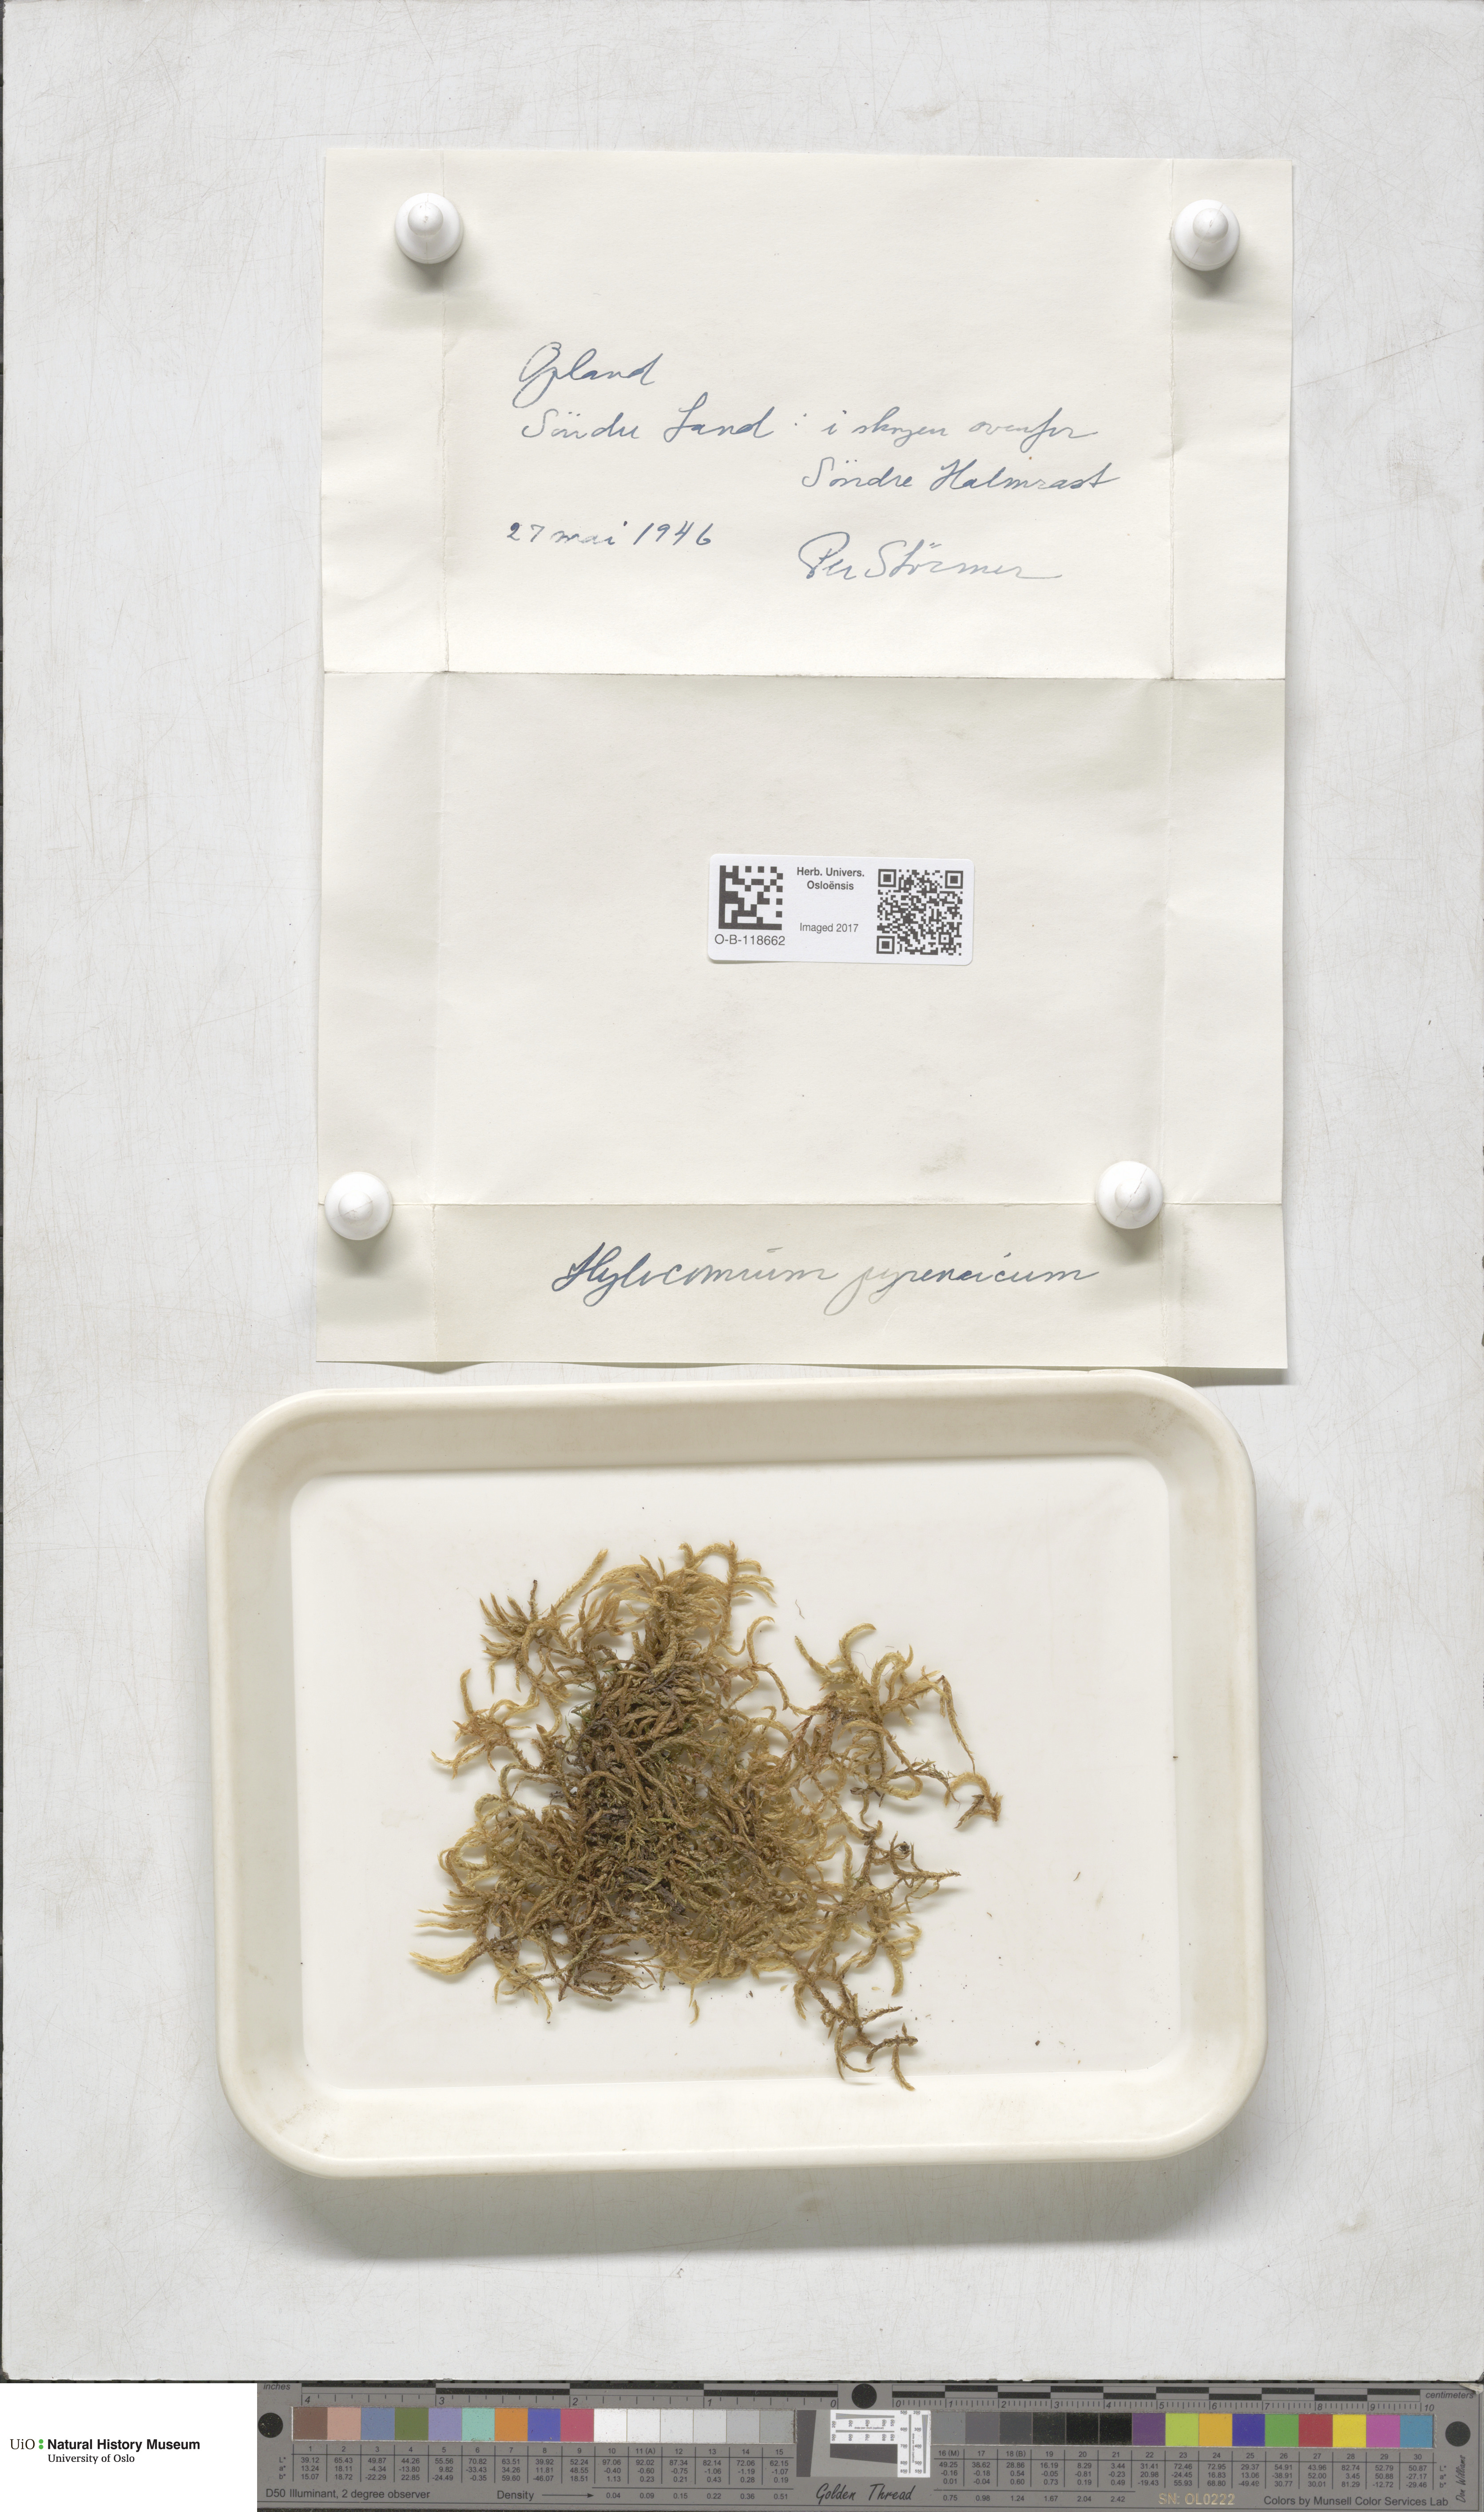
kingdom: Plantae
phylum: Bryophyta
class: Bryopsida
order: Hypnales
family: Hylocomiaceae
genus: Hylocomiastrum
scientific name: Hylocomiastrum pyrenaicum
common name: Oake s wood moss
